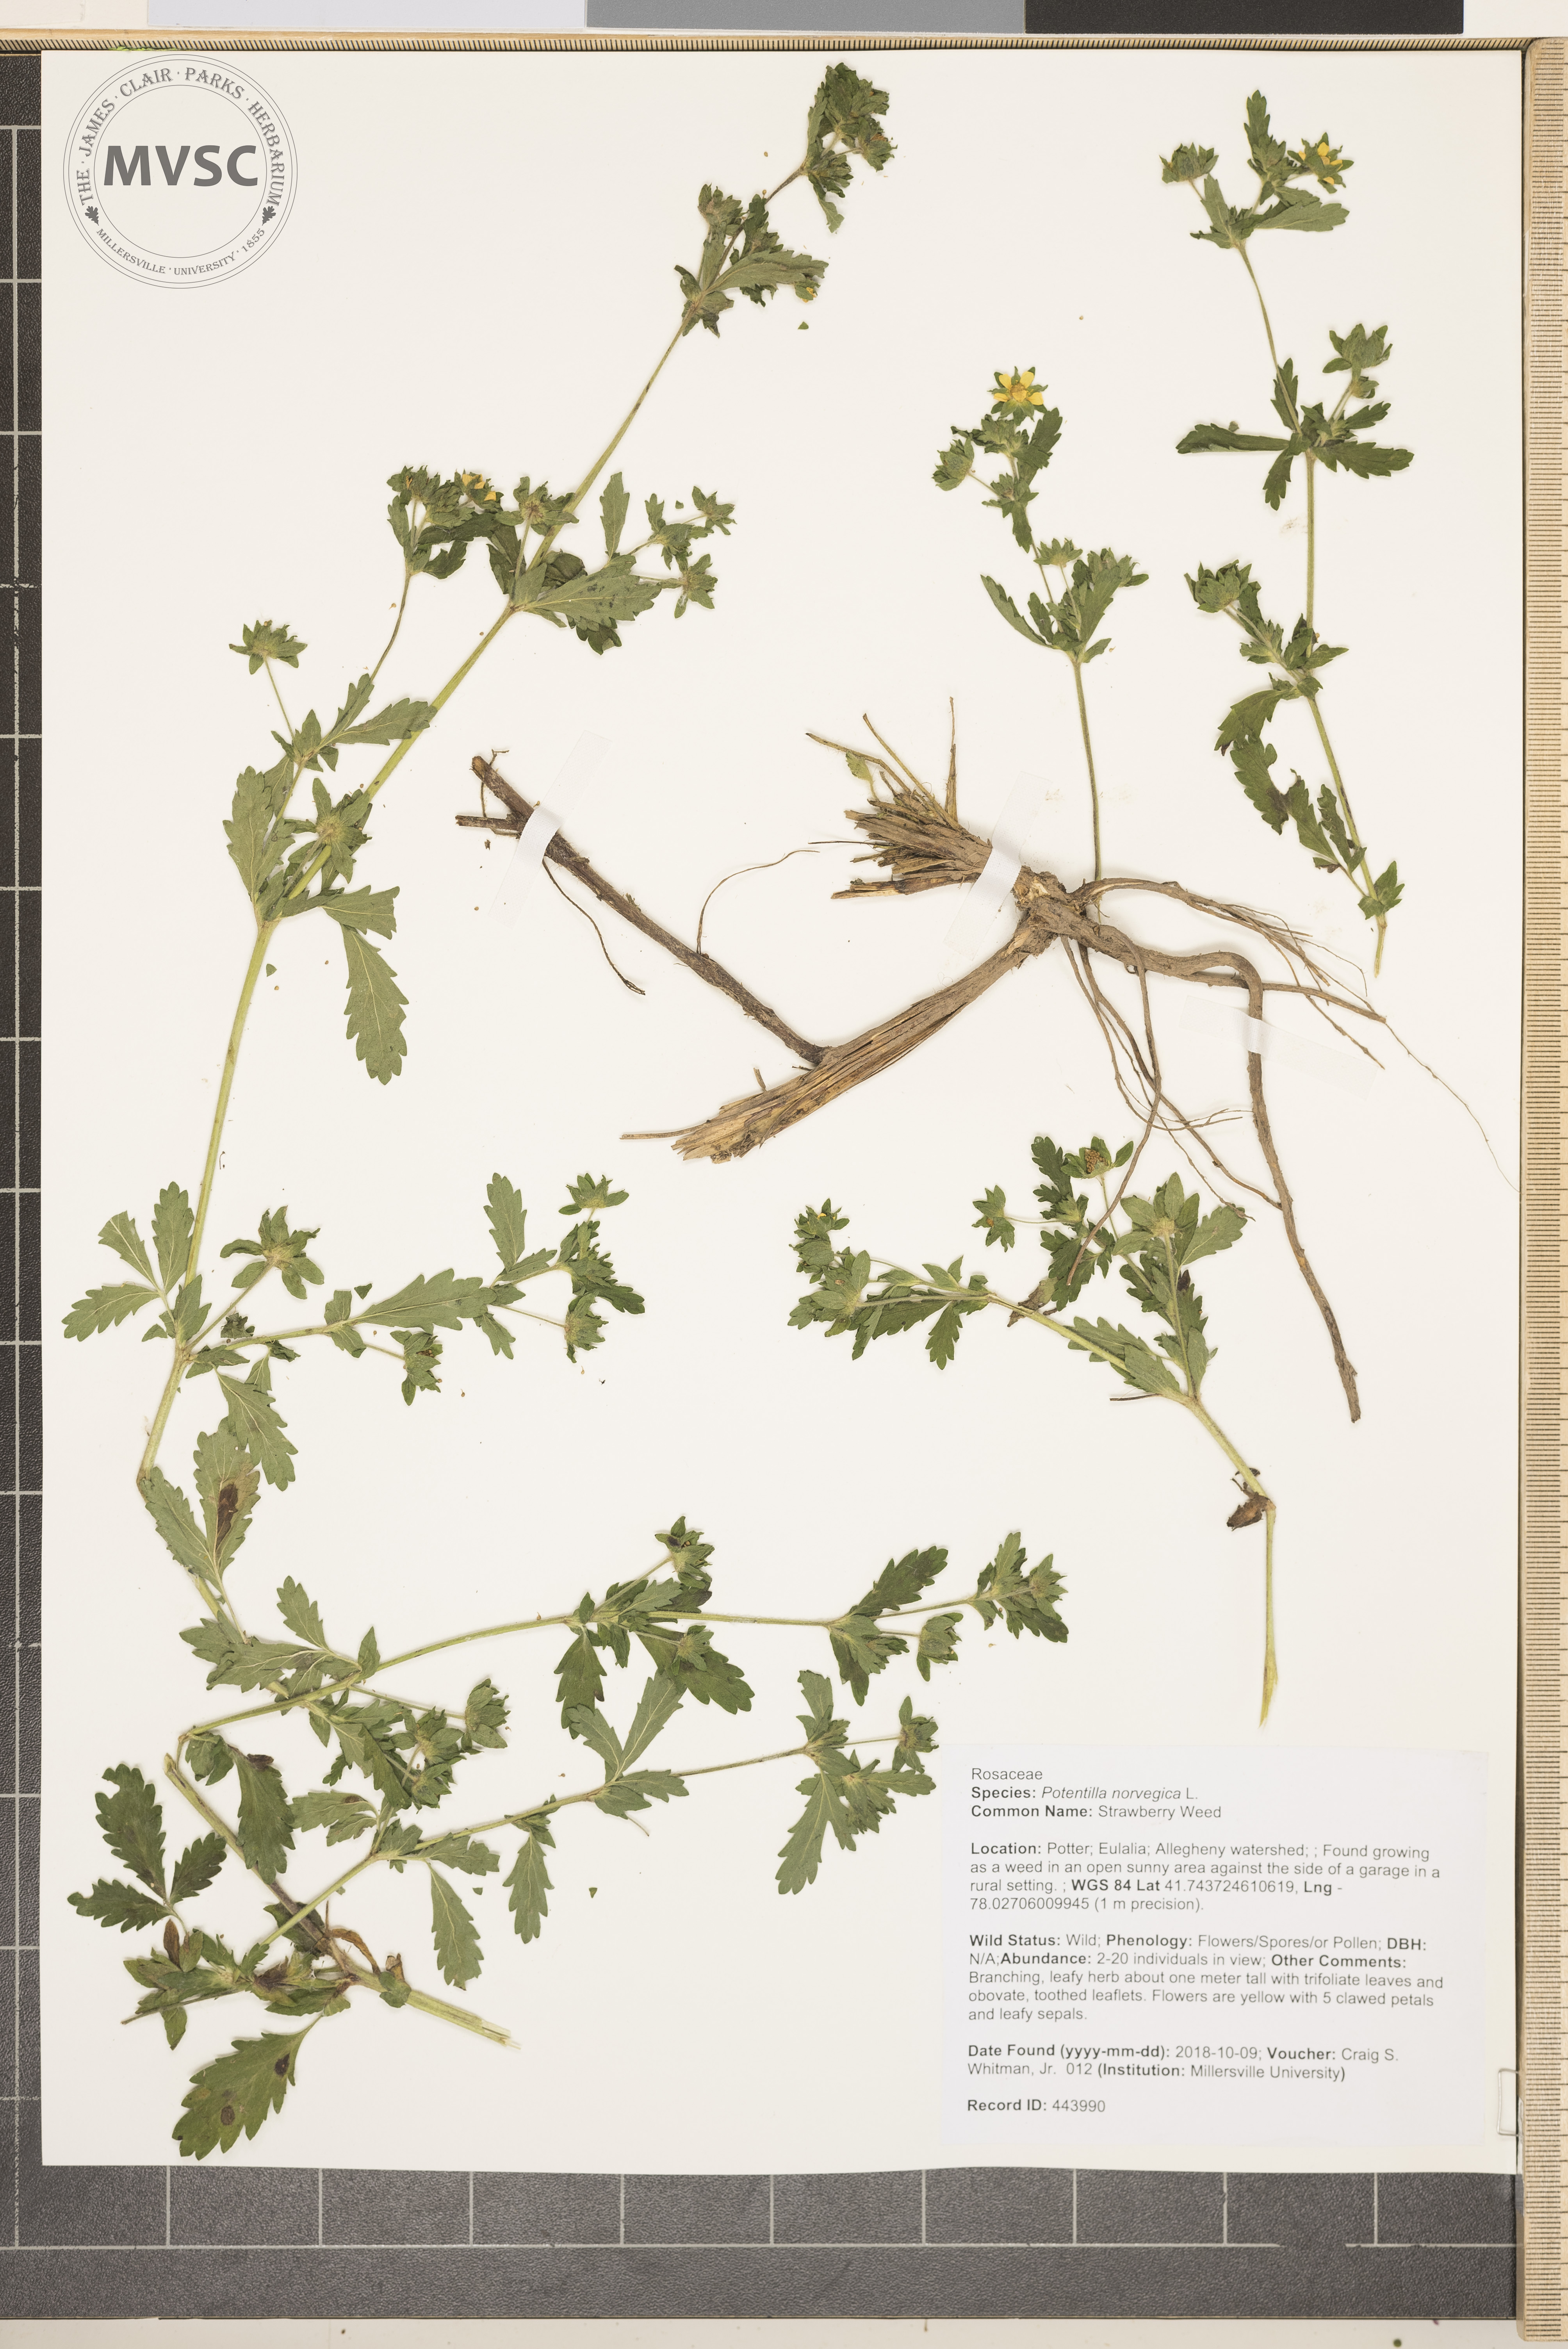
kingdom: Plantae
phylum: Tracheophyta
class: Magnoliopsida
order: Rosales
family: Rosaceae
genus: Potentilla
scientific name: Potentilla norvegica
